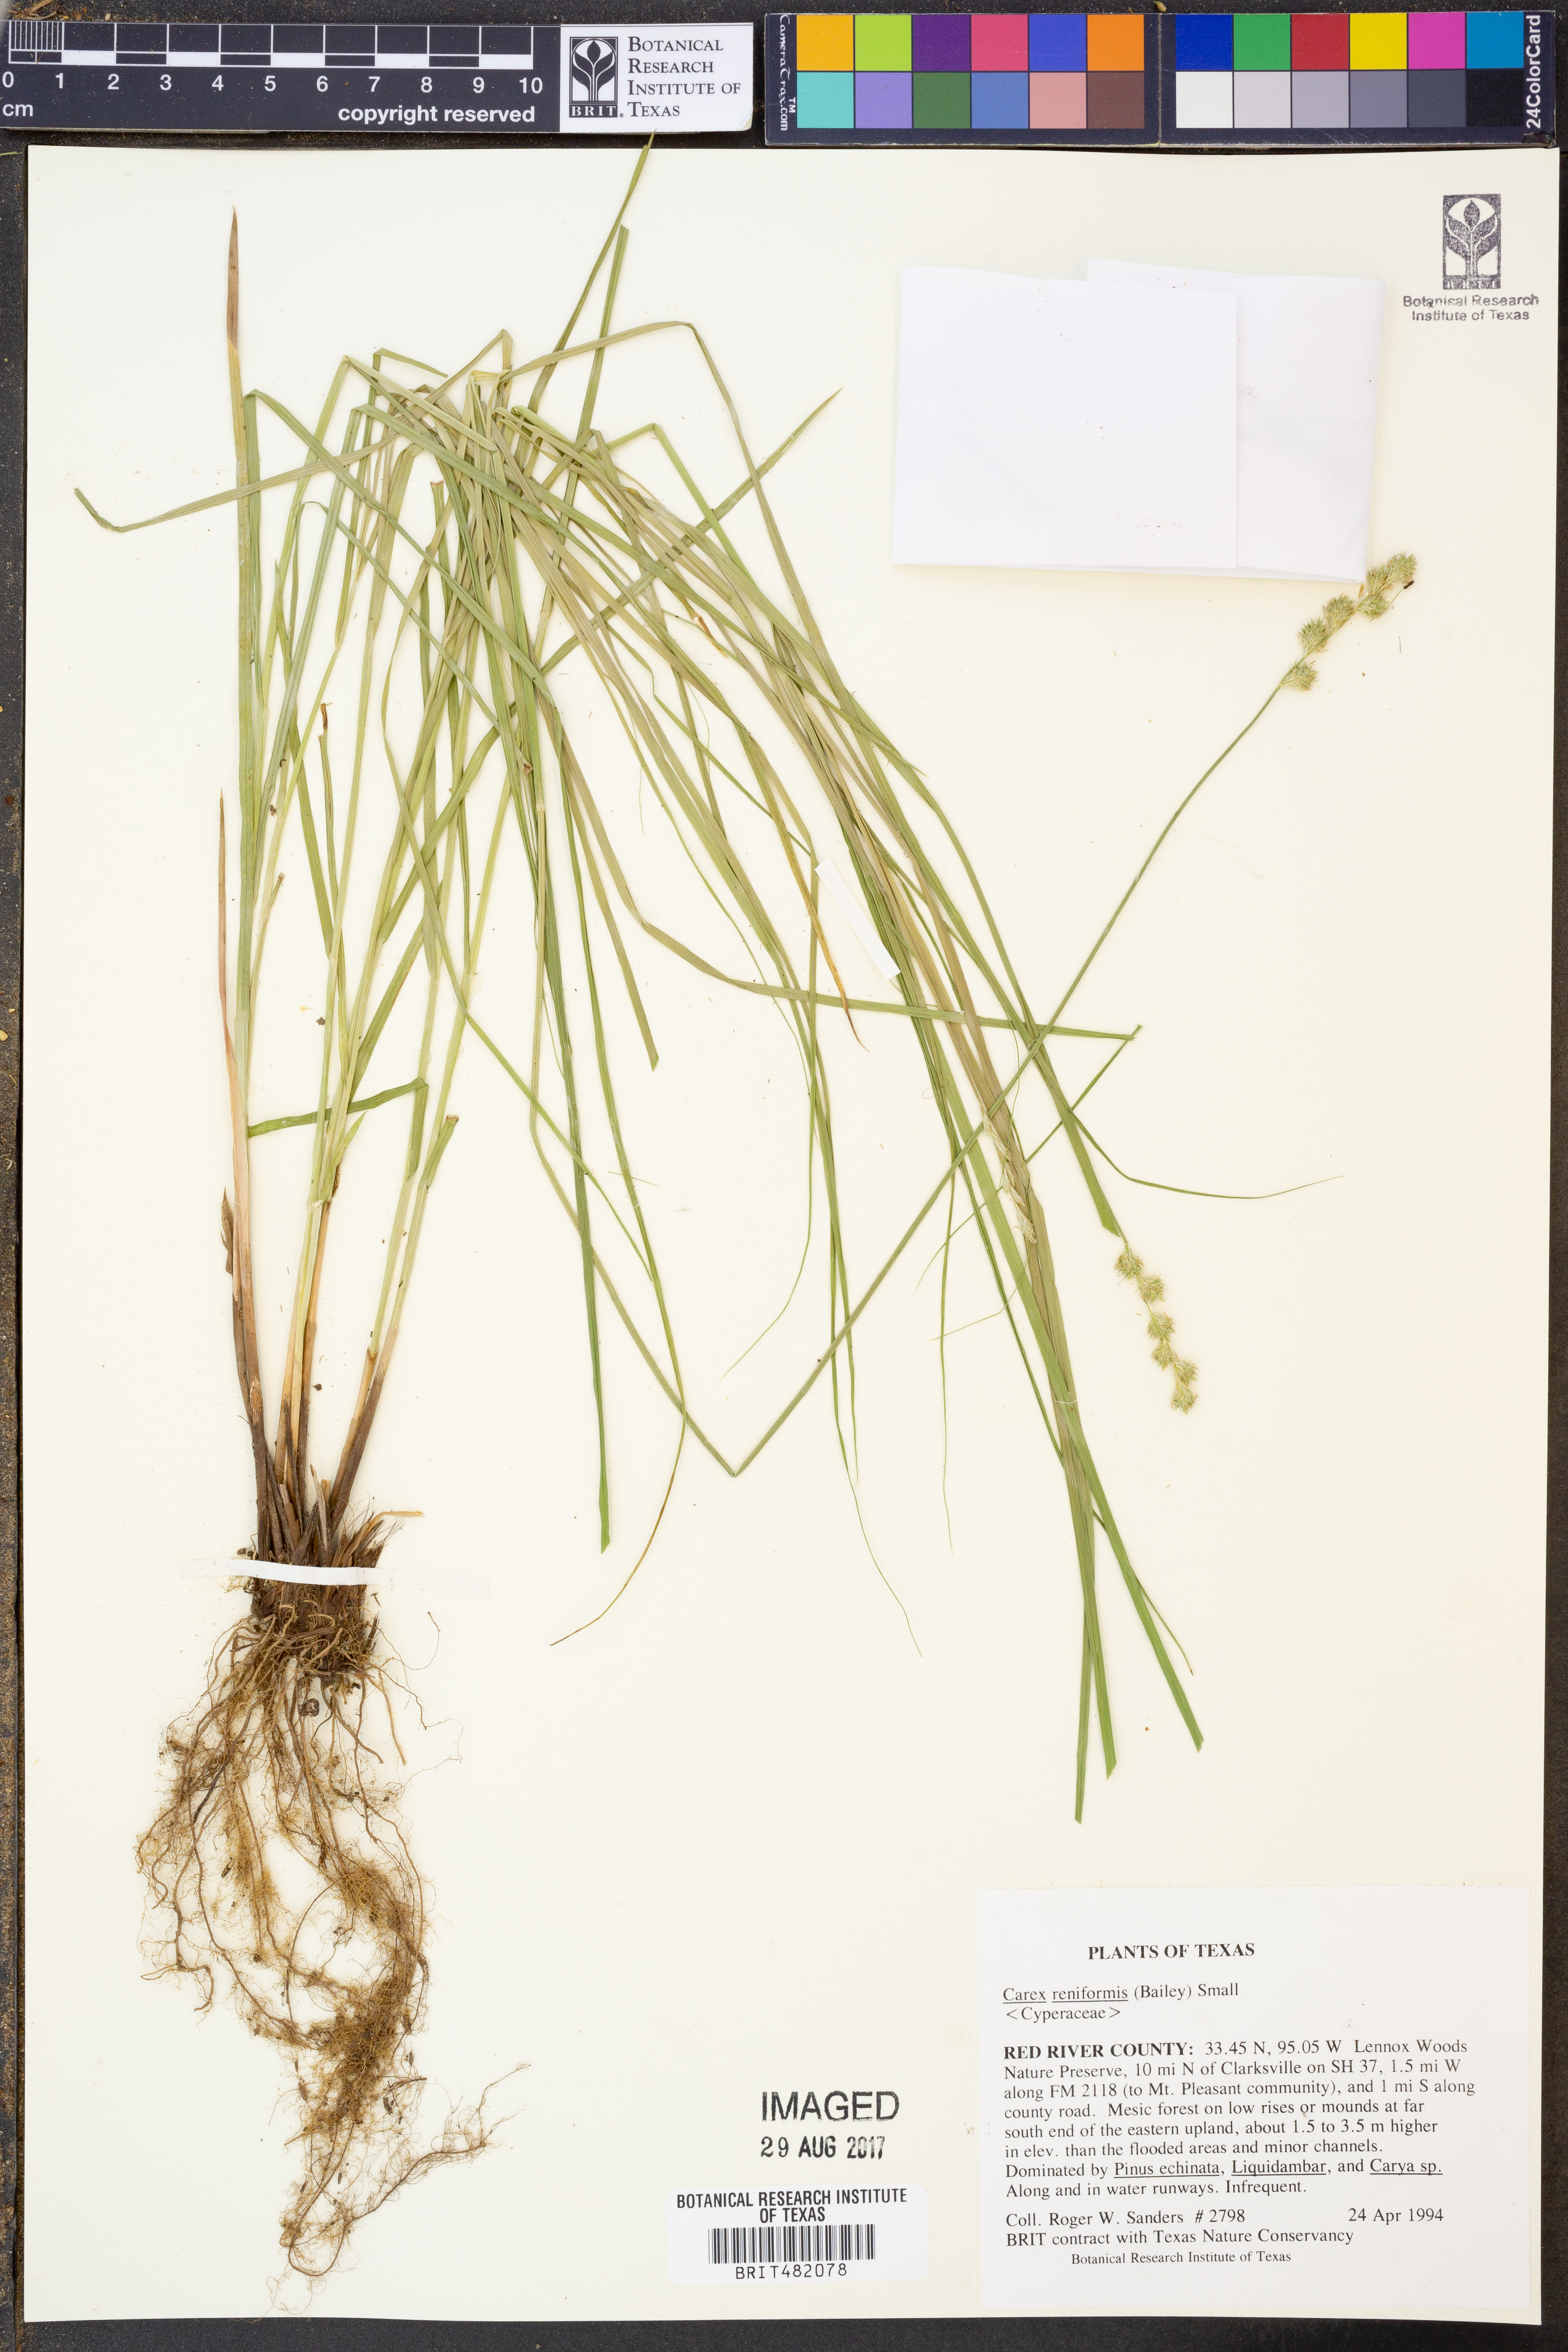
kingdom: Plantae
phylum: Tracheophyta
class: Liliopsida
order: Poales
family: Cyperaceae
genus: Carex
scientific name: Carex reniformis
